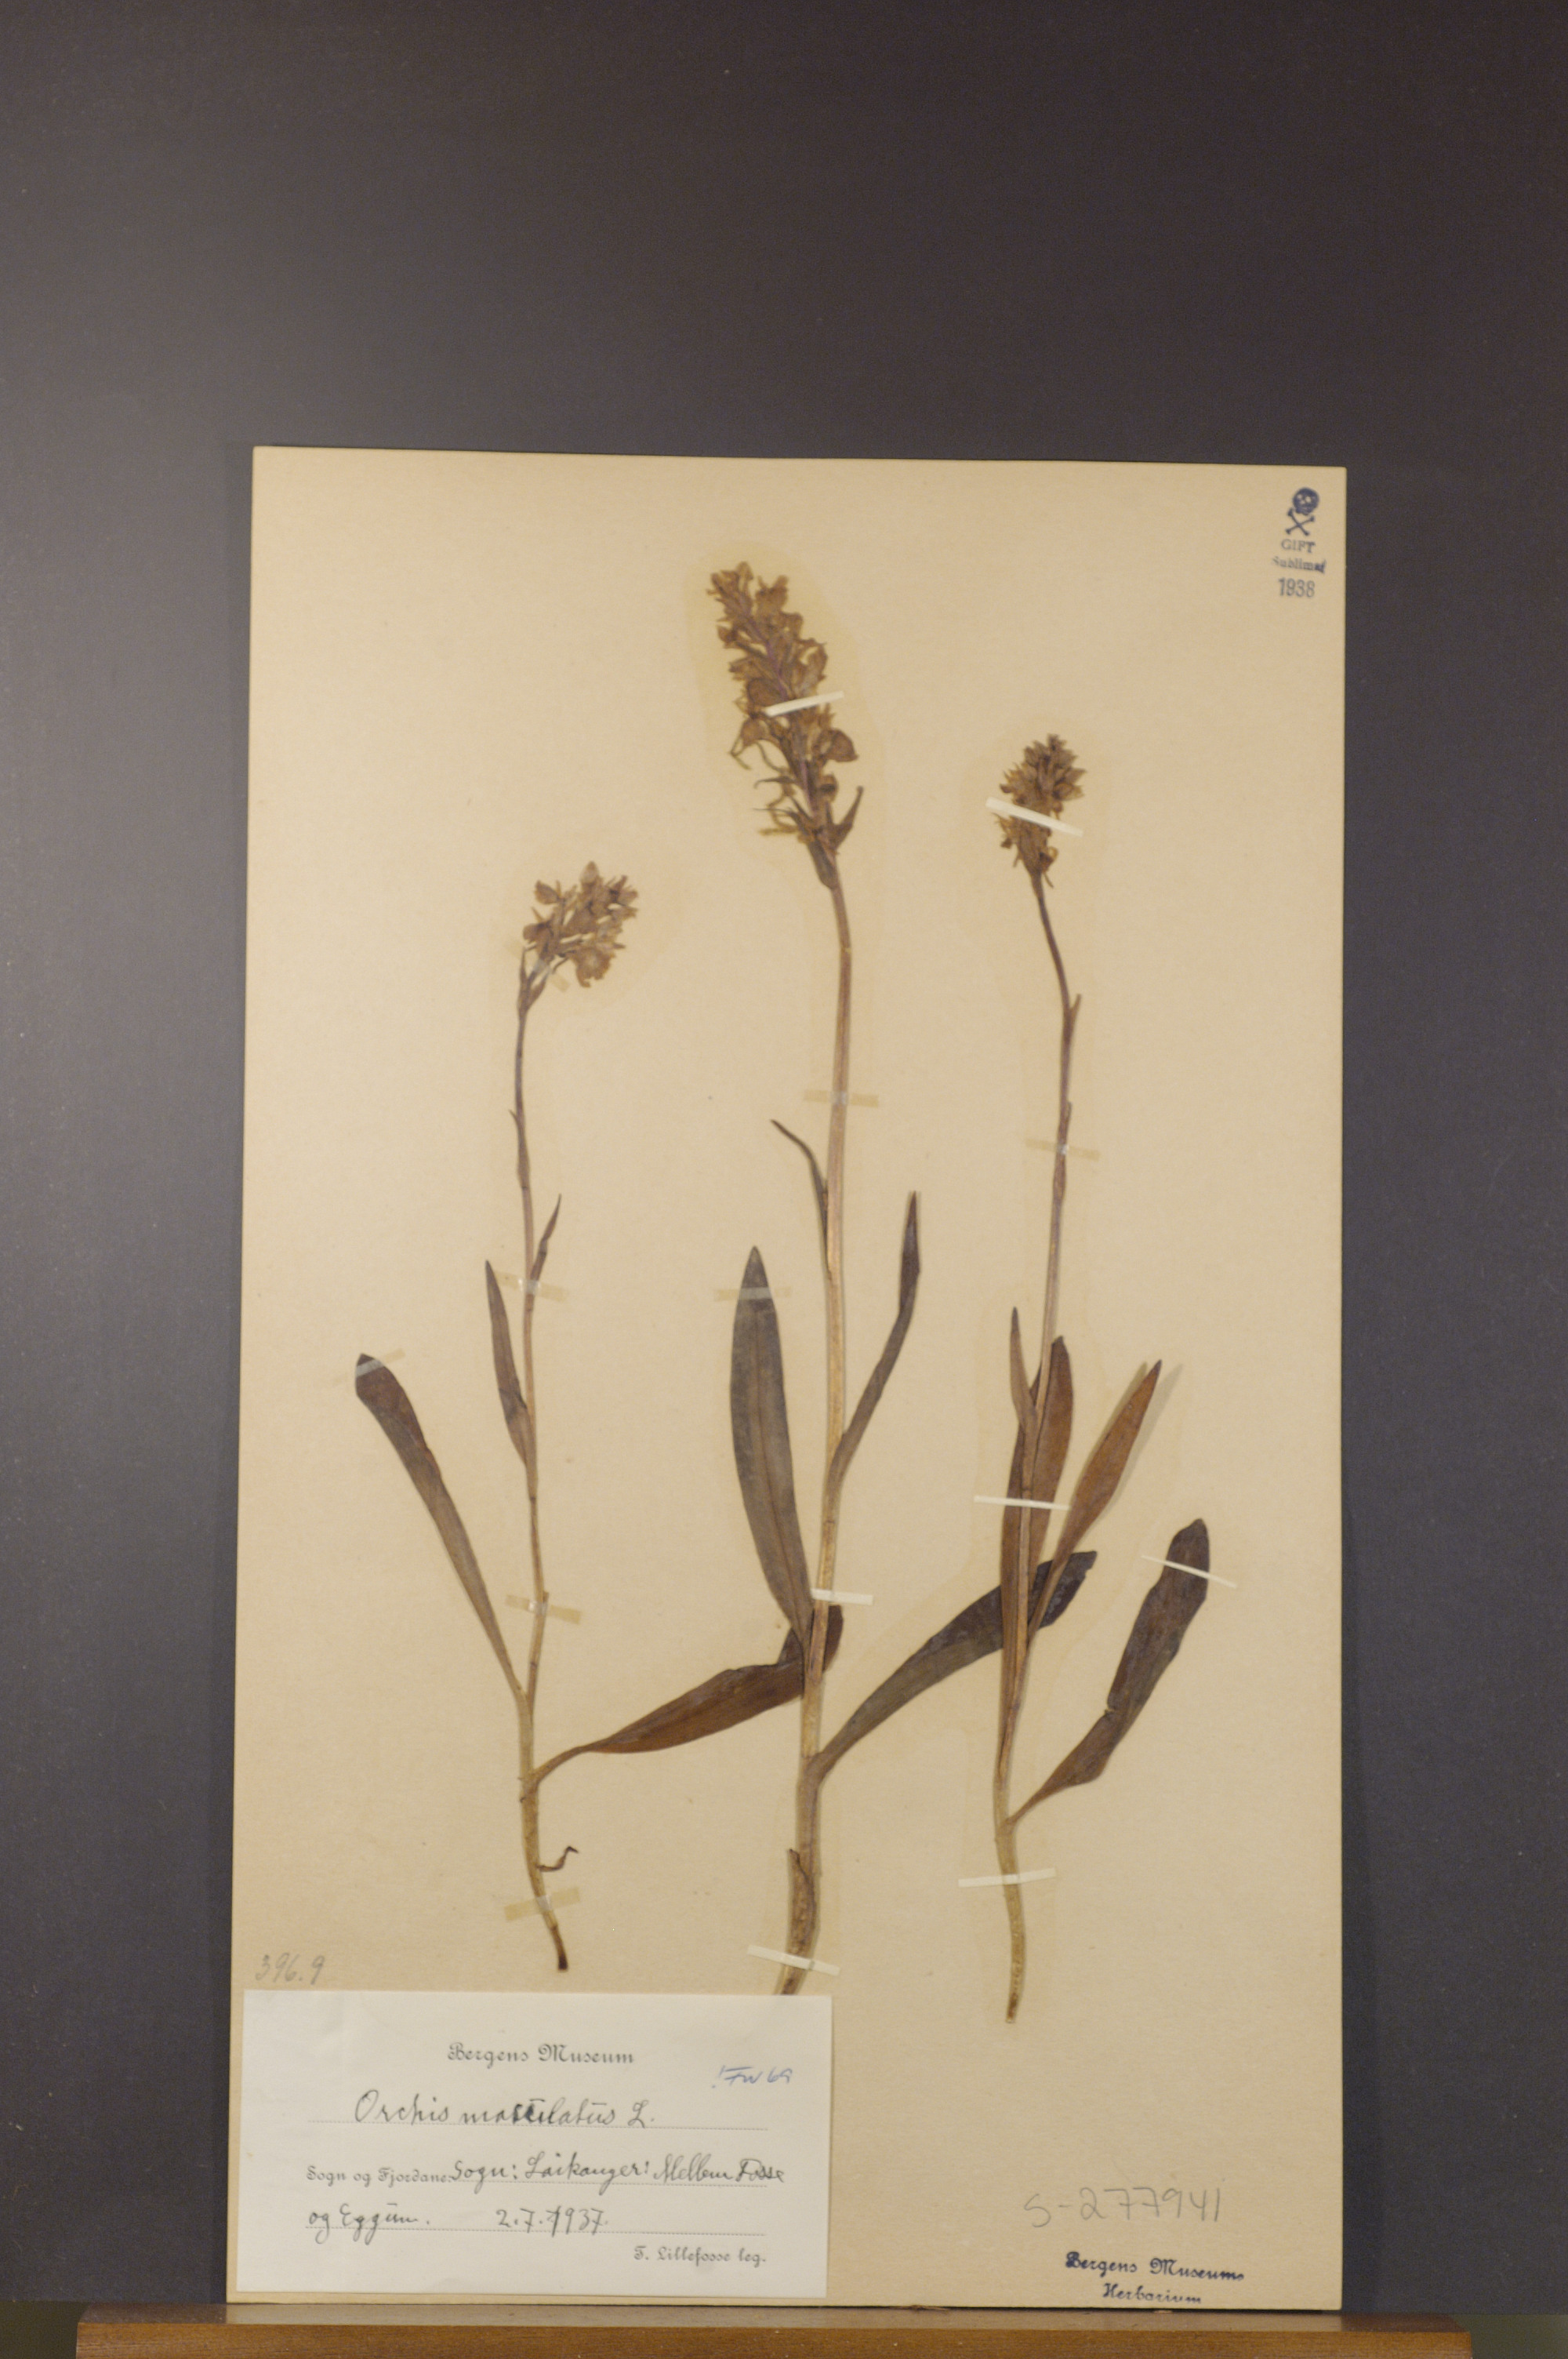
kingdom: Plantae
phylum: Tracheophyta
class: Liliopsida
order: Asparagales
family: Orchidaceae
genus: Dactylorhiza
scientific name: Dactylorhiza maculata
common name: Heath spotted-orchid
